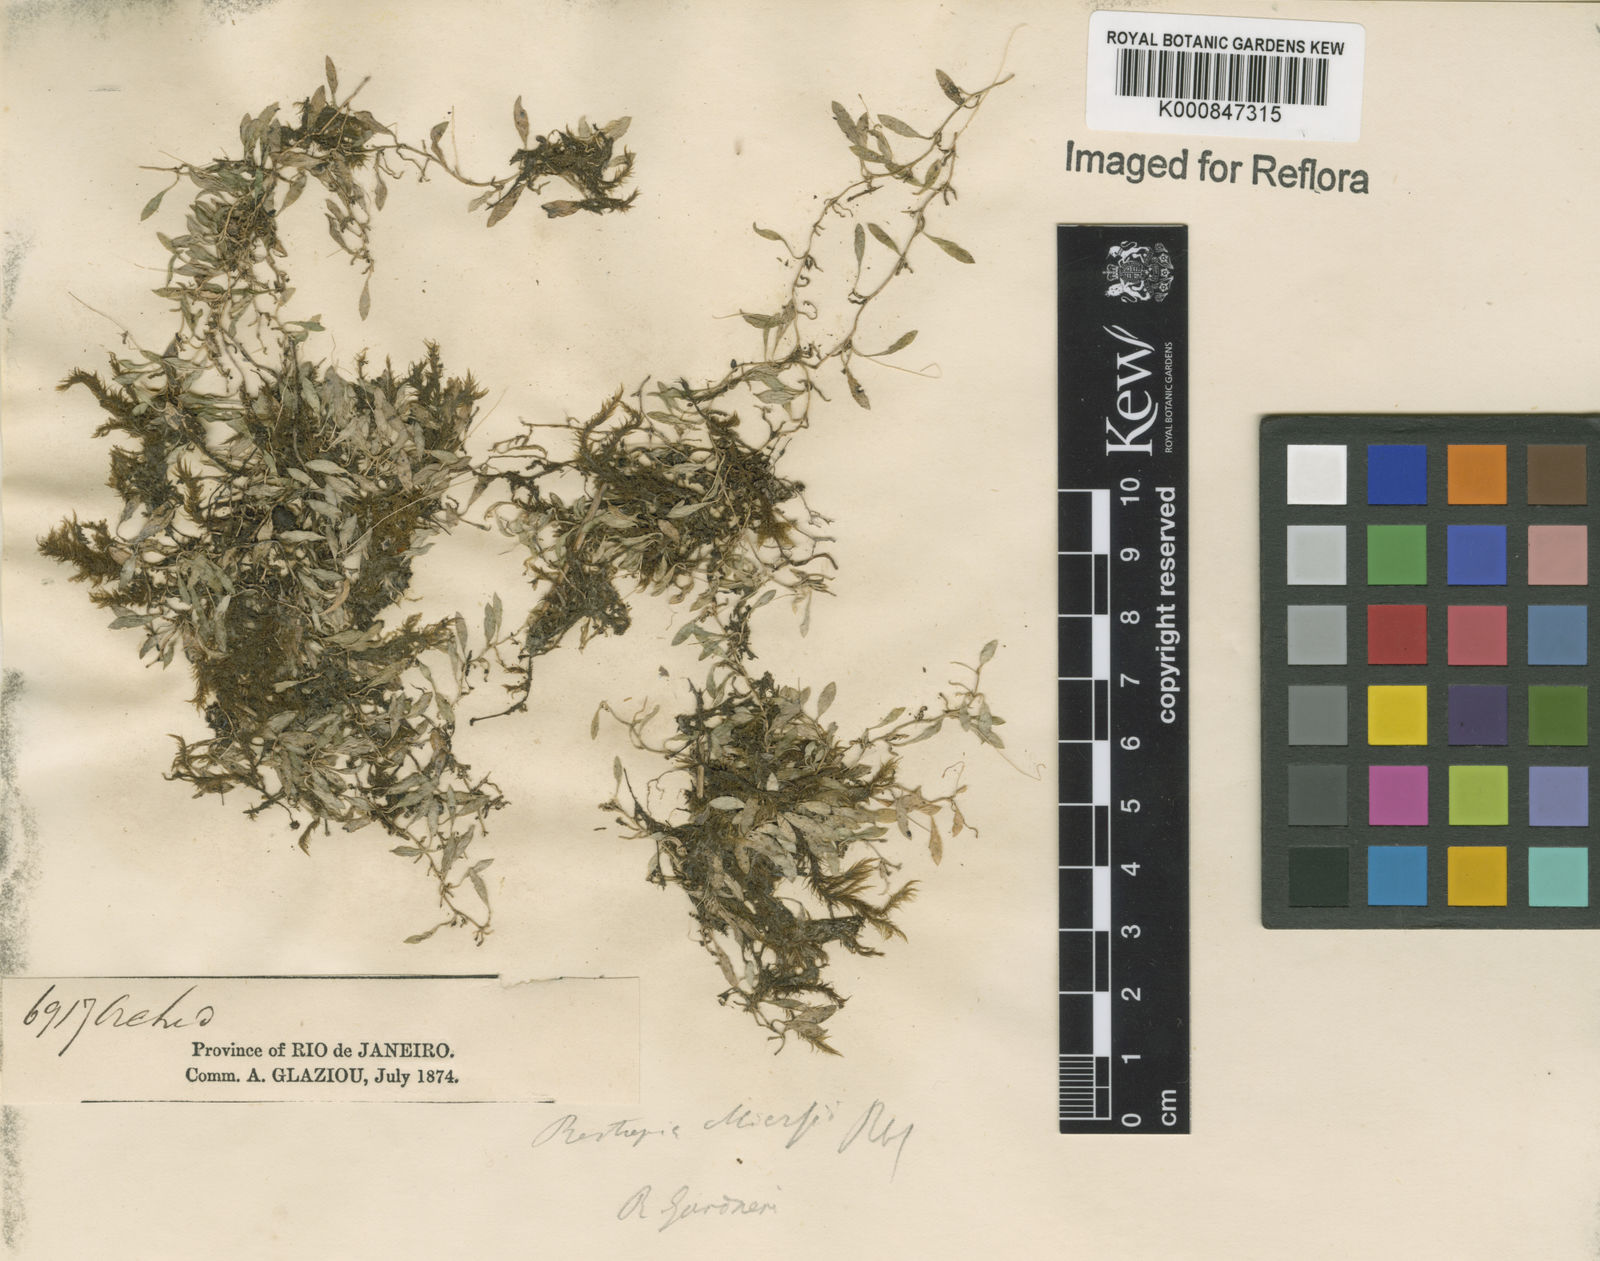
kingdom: Plantae
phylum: Tracheophyta
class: Liliopsida
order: Asparagales
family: Orchidaceae
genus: Barbosella
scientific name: Barbosella miersii
